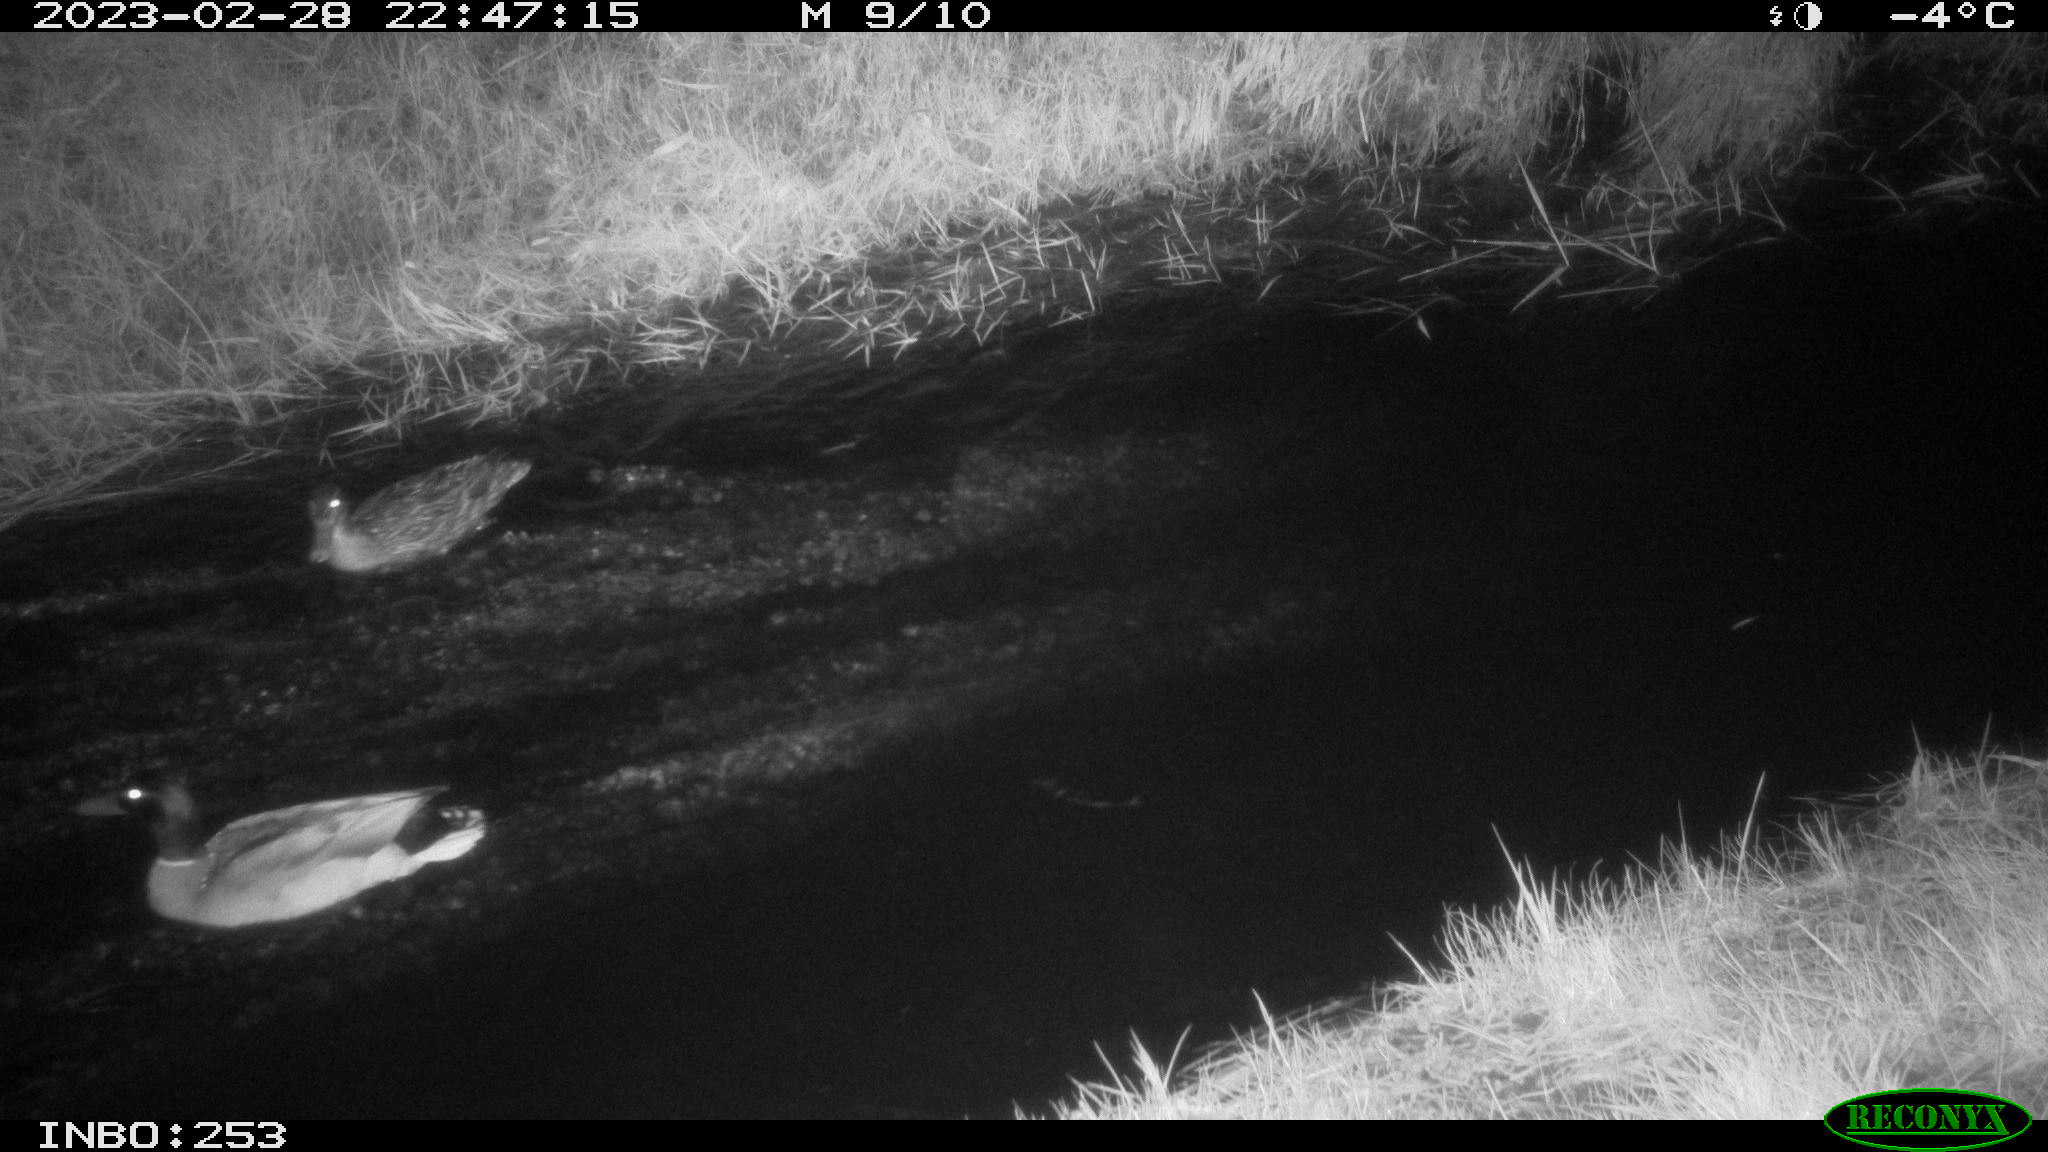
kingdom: Animalia
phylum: Chordata
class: Aves
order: Anseriformes
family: Anatidae
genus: Anas
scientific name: Anas
